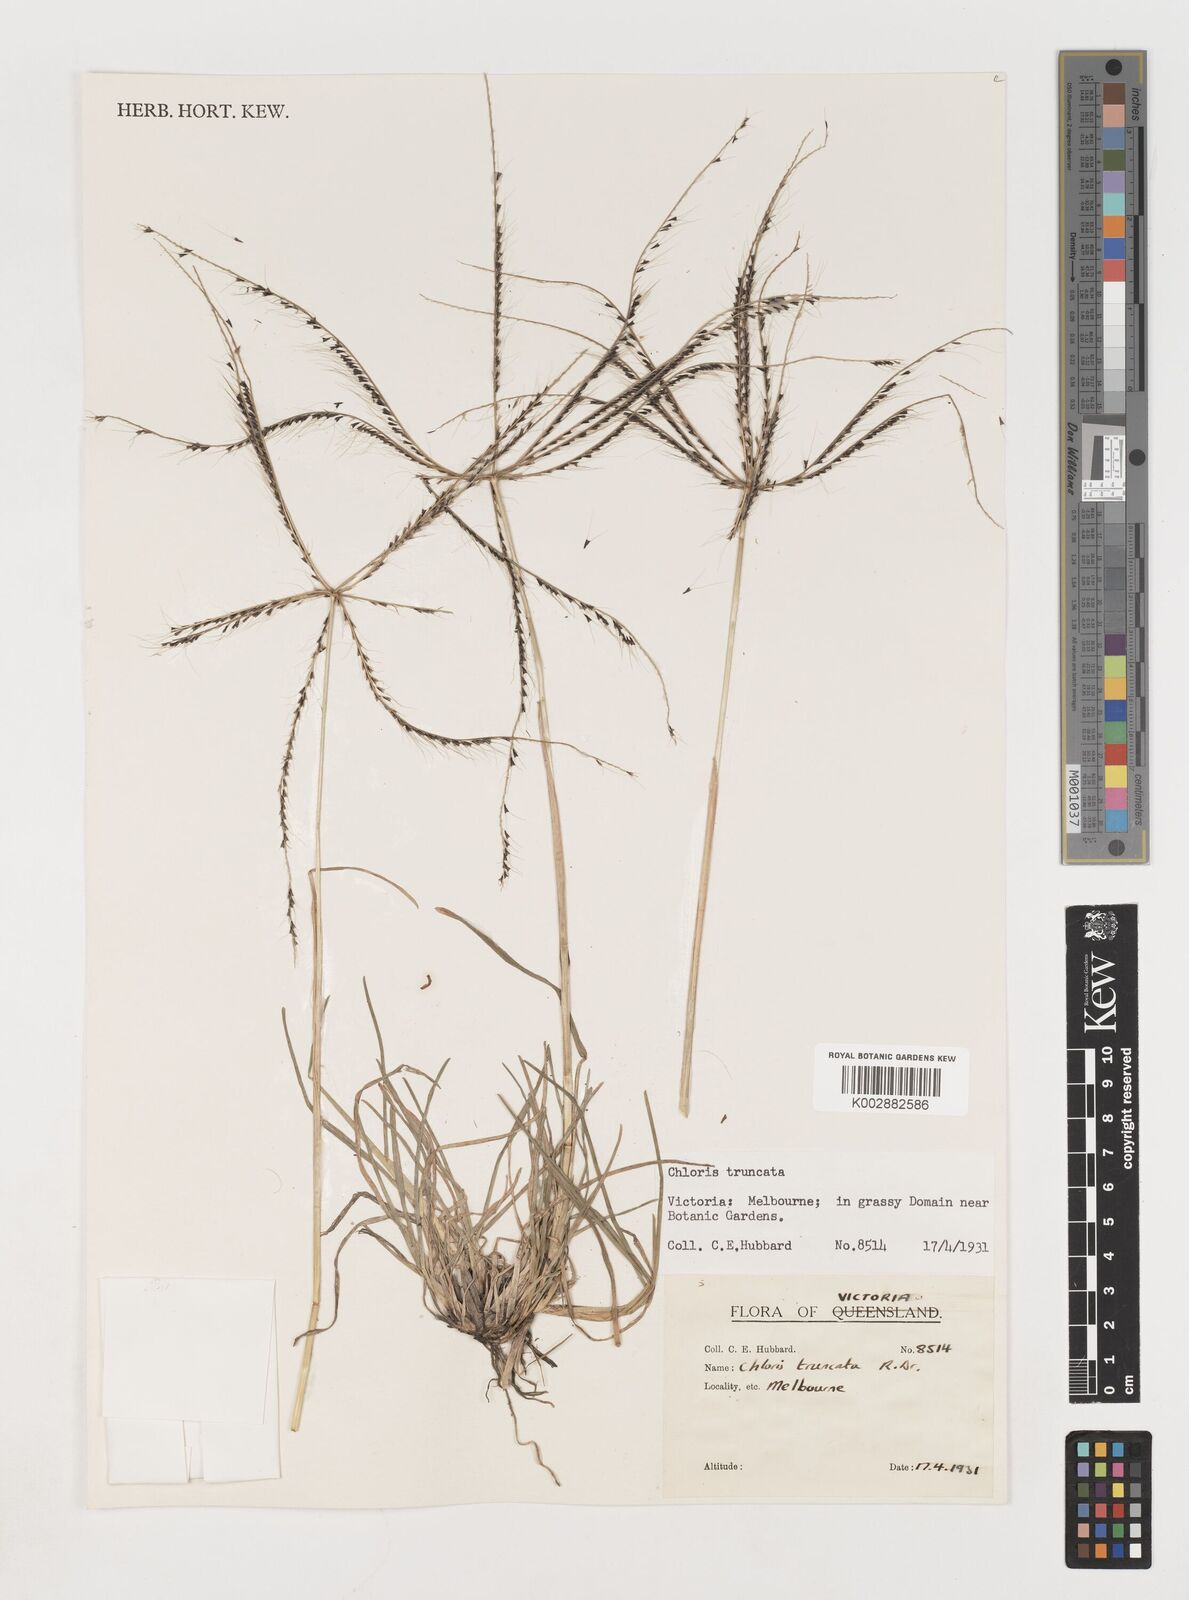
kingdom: Plantae
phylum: Tracheophyta
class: Liliopsida
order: Poales
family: Poaceae
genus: Chloris
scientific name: Chloris truncata
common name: Windmill-grass
